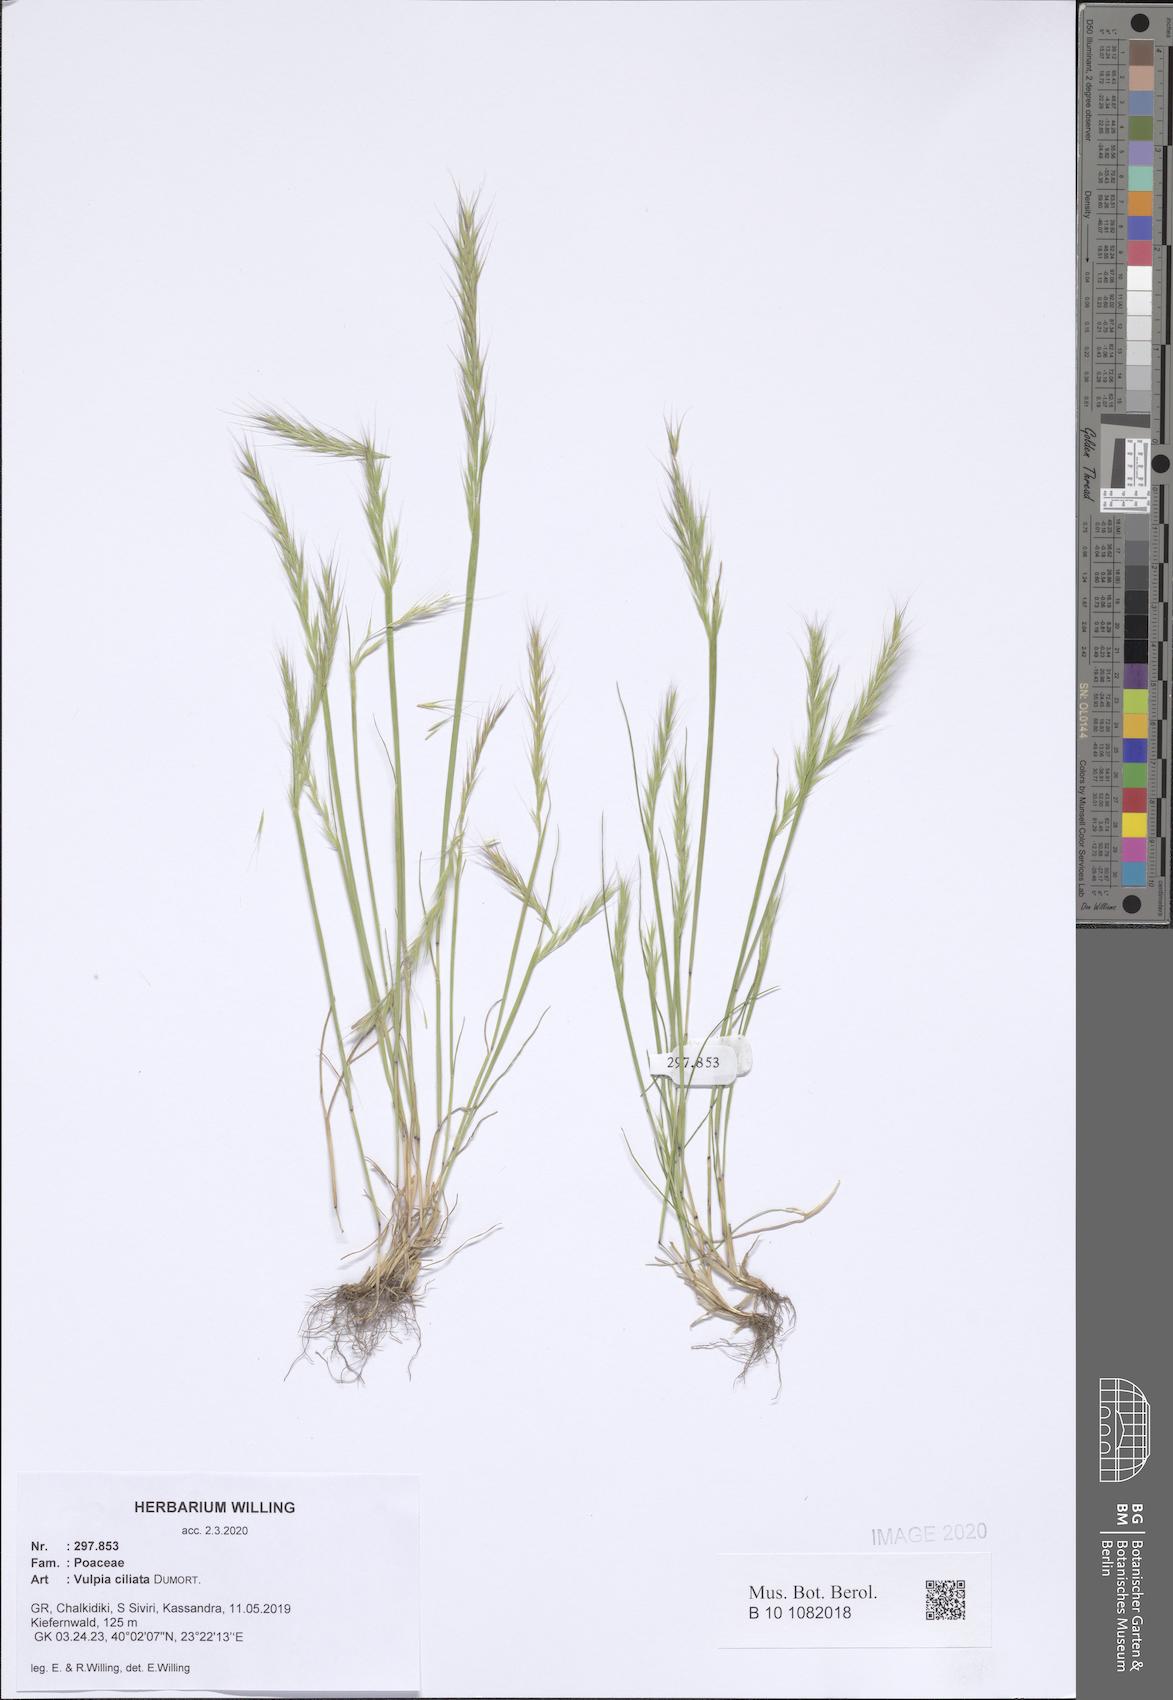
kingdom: Plantae
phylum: Tracheophyta
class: Liliopsida
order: Poales
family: Poaceae
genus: Festuca
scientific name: Festuca ambigua
